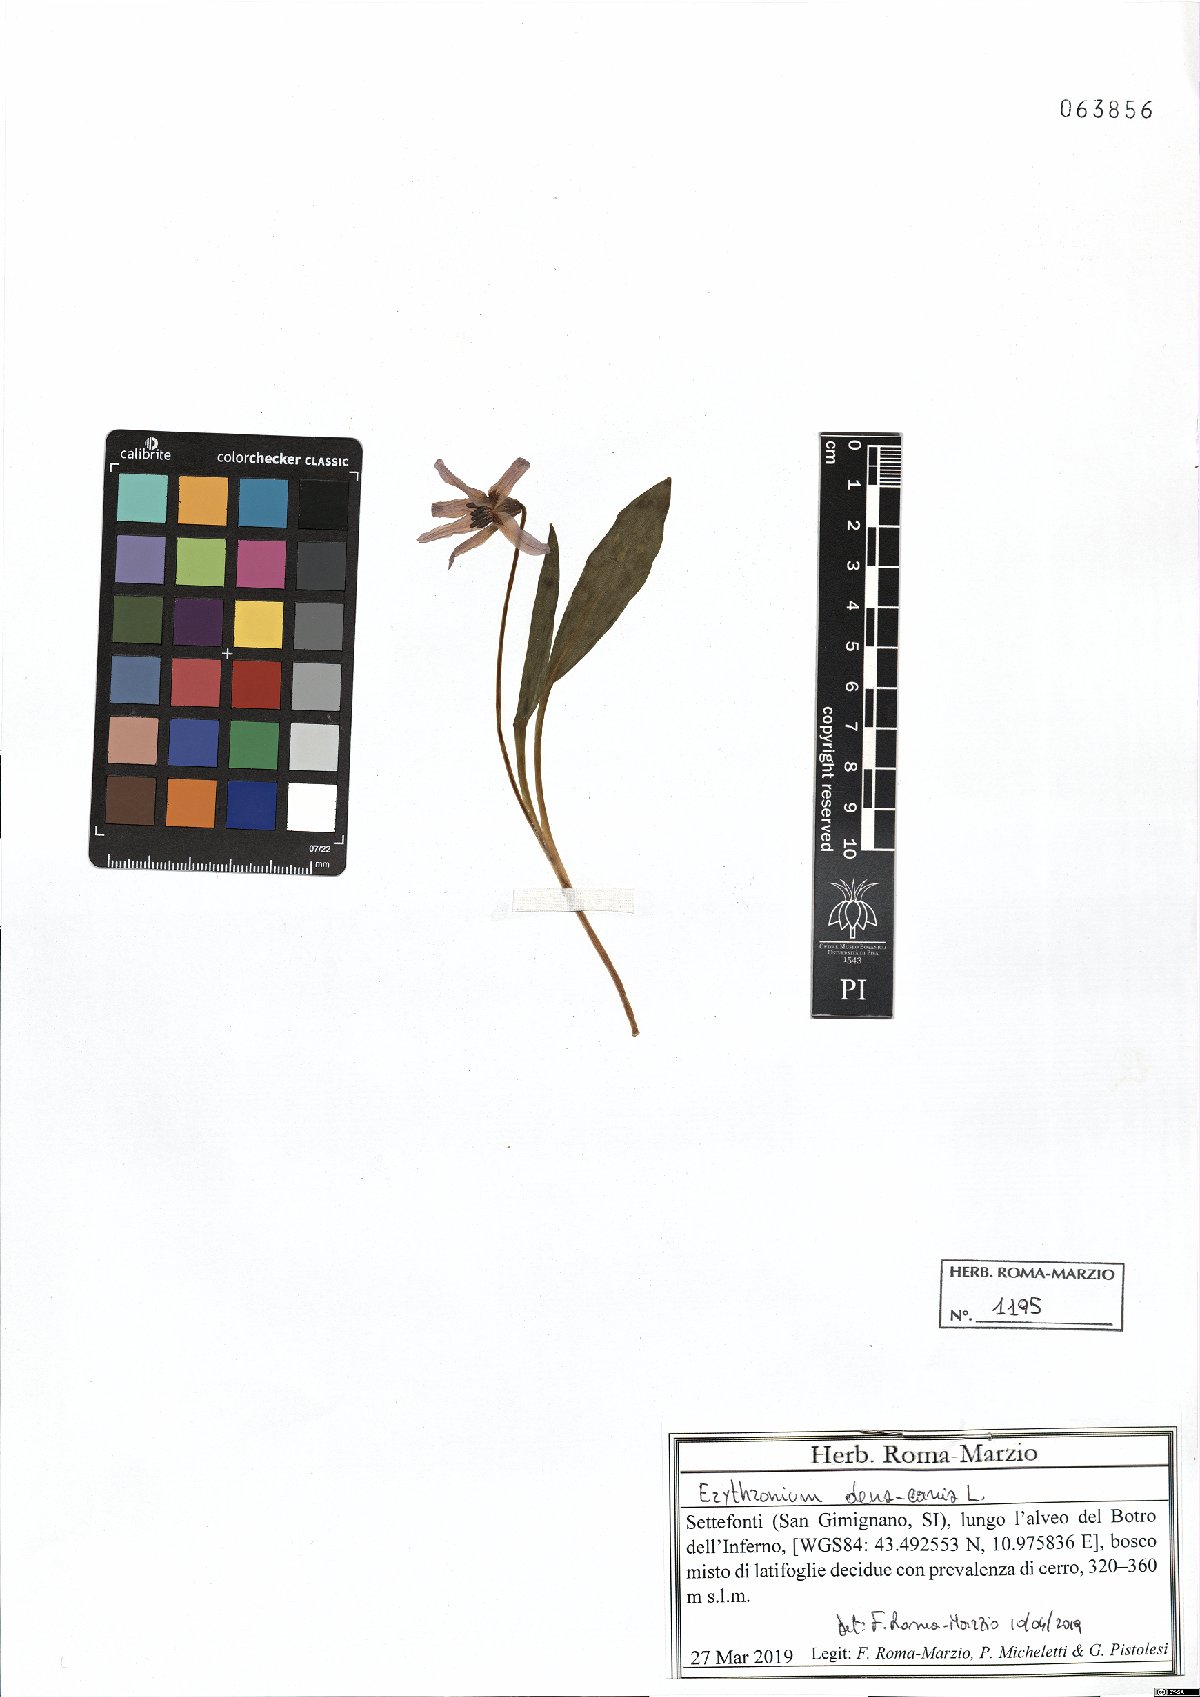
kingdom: Plantae
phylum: Tracheophyta
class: Liliopsida
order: Liliales
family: Liliaceae
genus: Erythronium
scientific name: Erythronium dens-canis
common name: Dog's-tooth-violet
